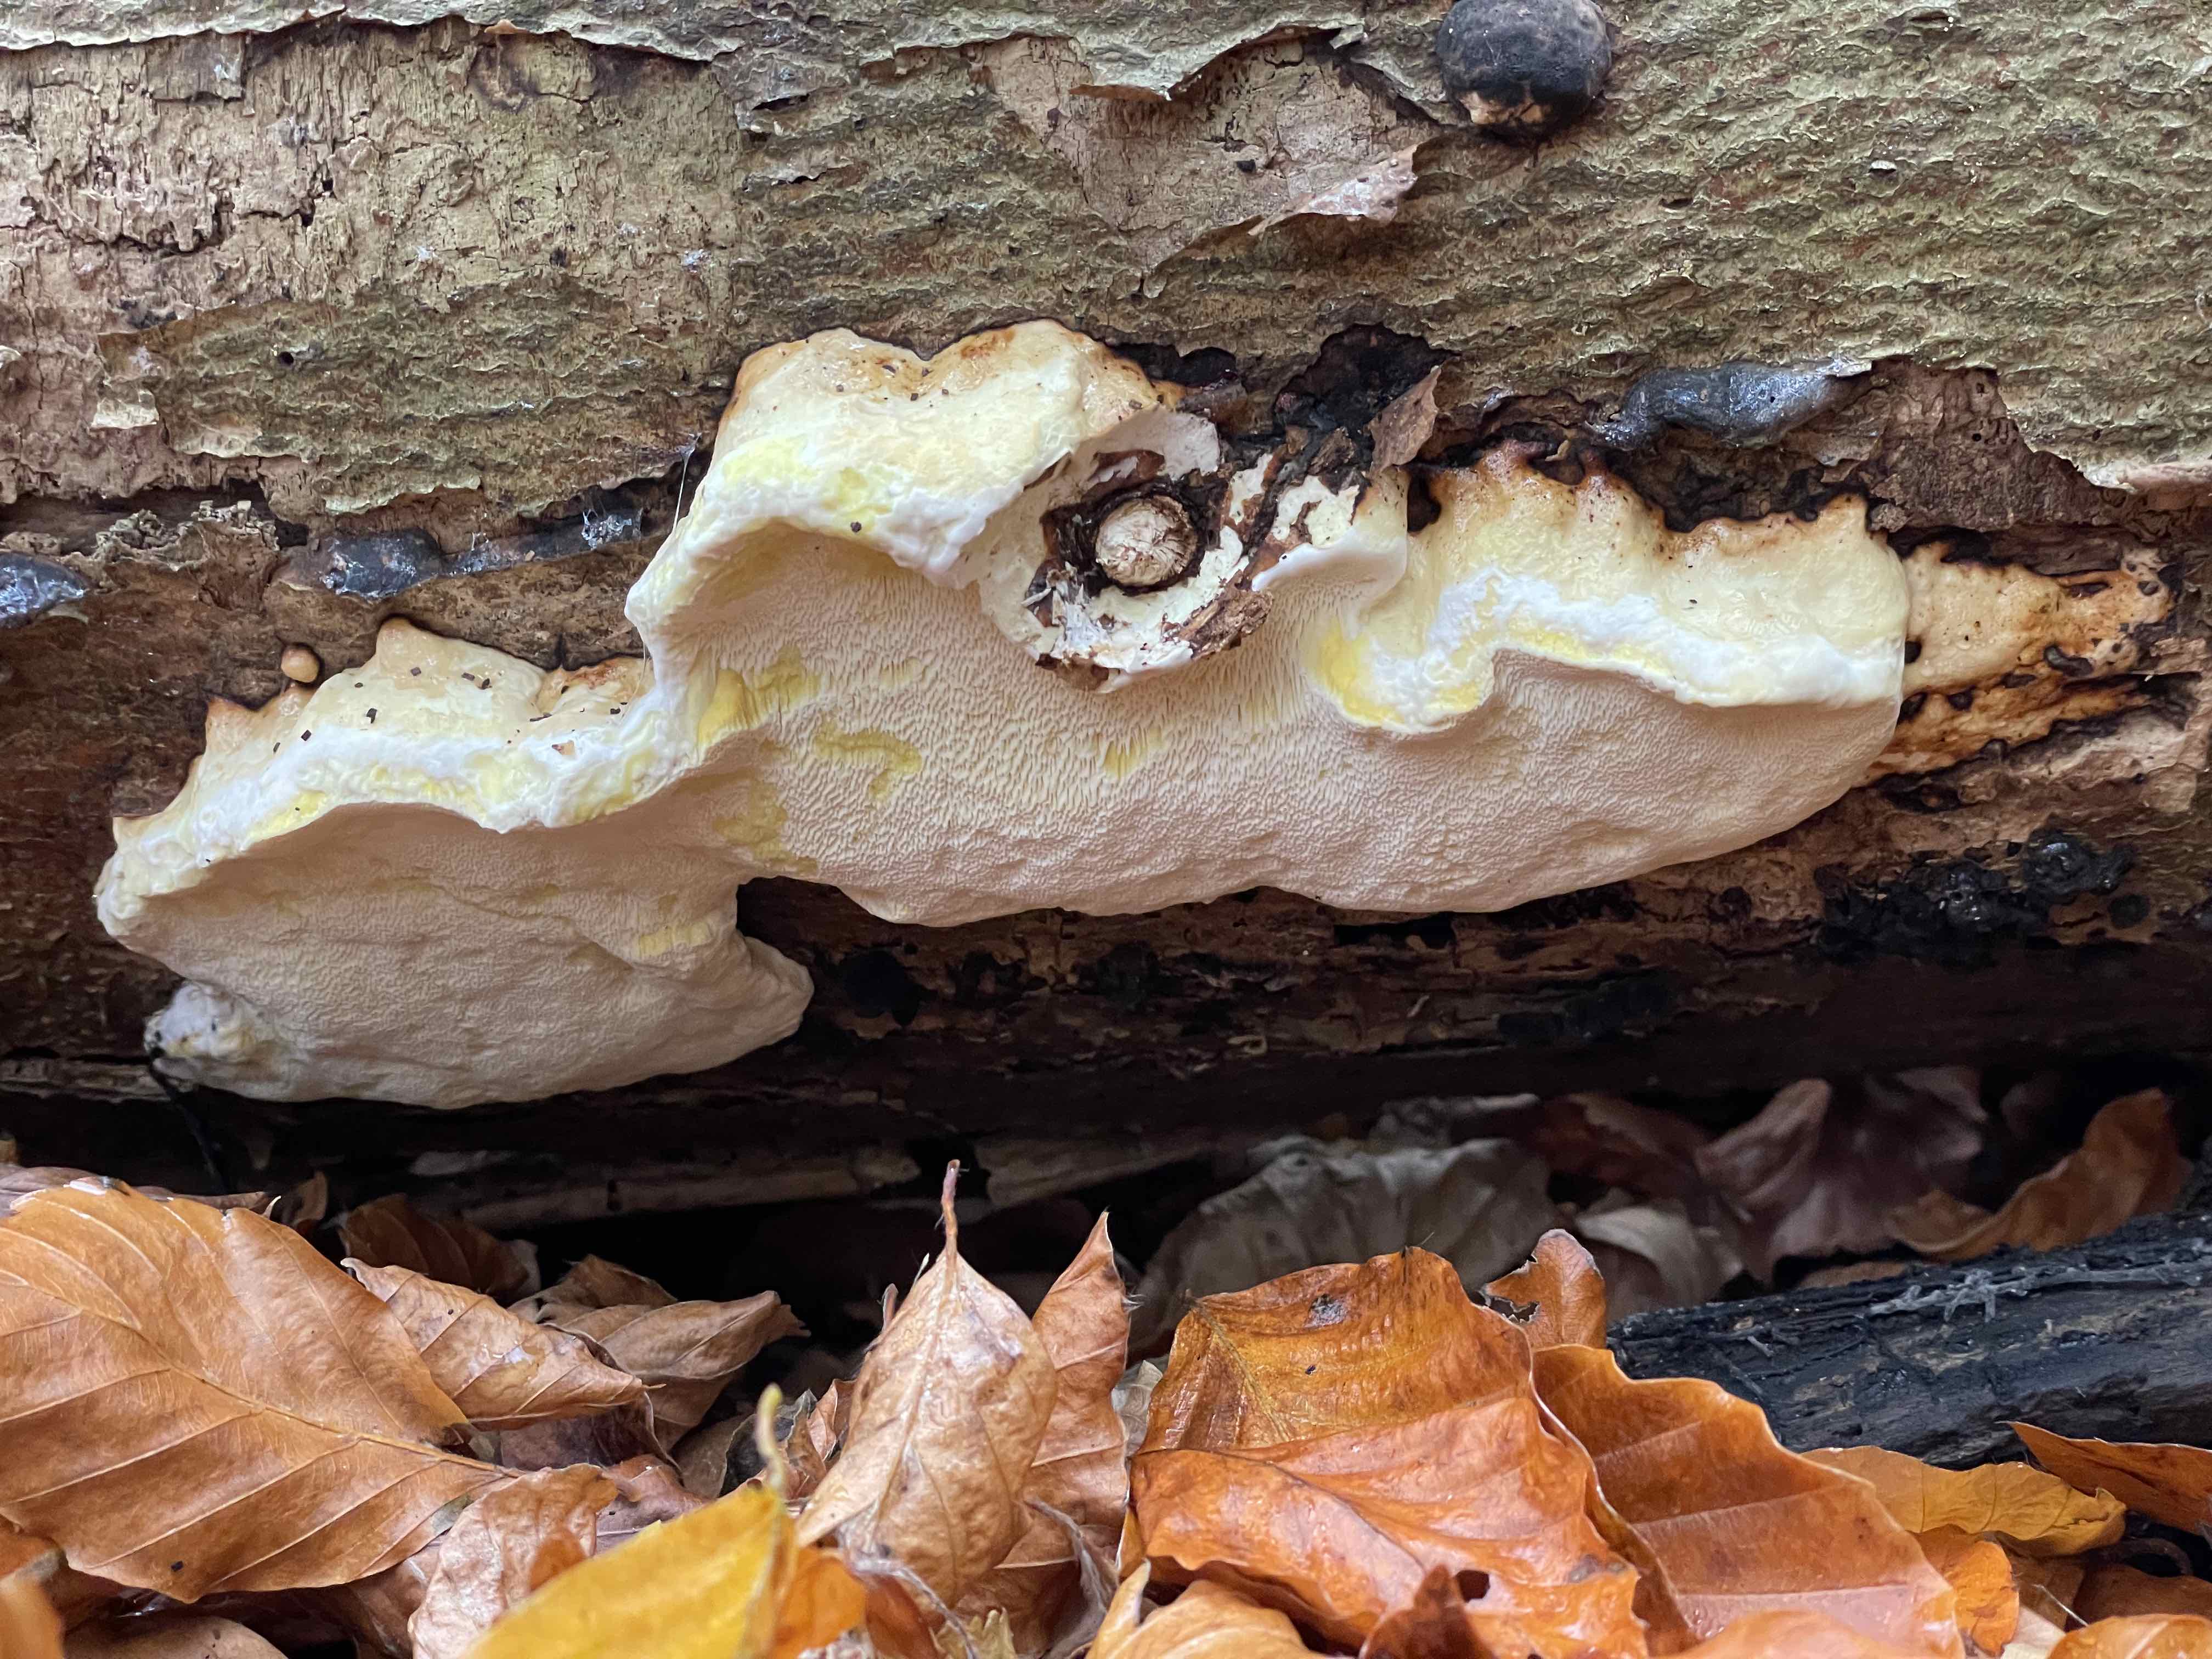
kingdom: Fungi
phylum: Basidiomycota
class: Agaricomycetes
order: Polyporales
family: Fomitopsidaceae
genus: Fomitopsis
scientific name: Fomitopsis pinicola
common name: randbæltet hovporesvamp
